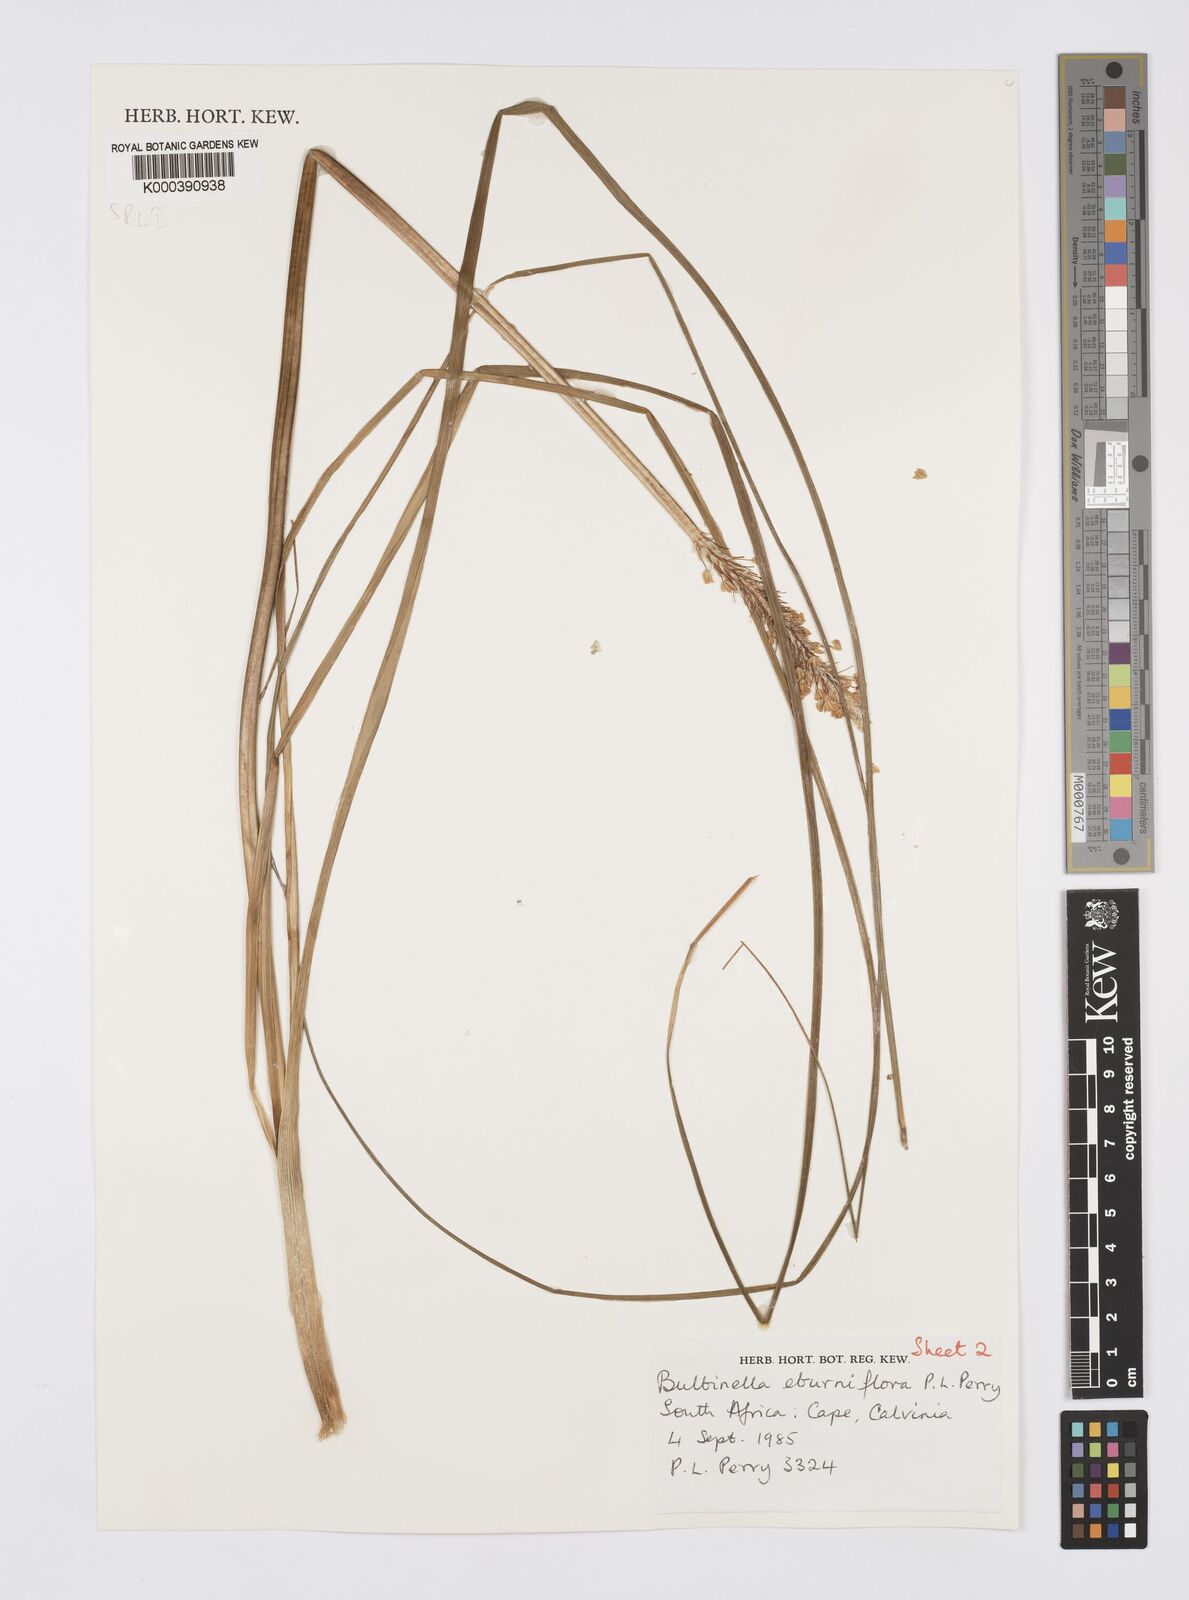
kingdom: Plantae
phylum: Tracheophyta
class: Liliopsida
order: Asparagales
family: Asphodelaceae
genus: Bulbinella
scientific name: Bulbinella eburniflora
